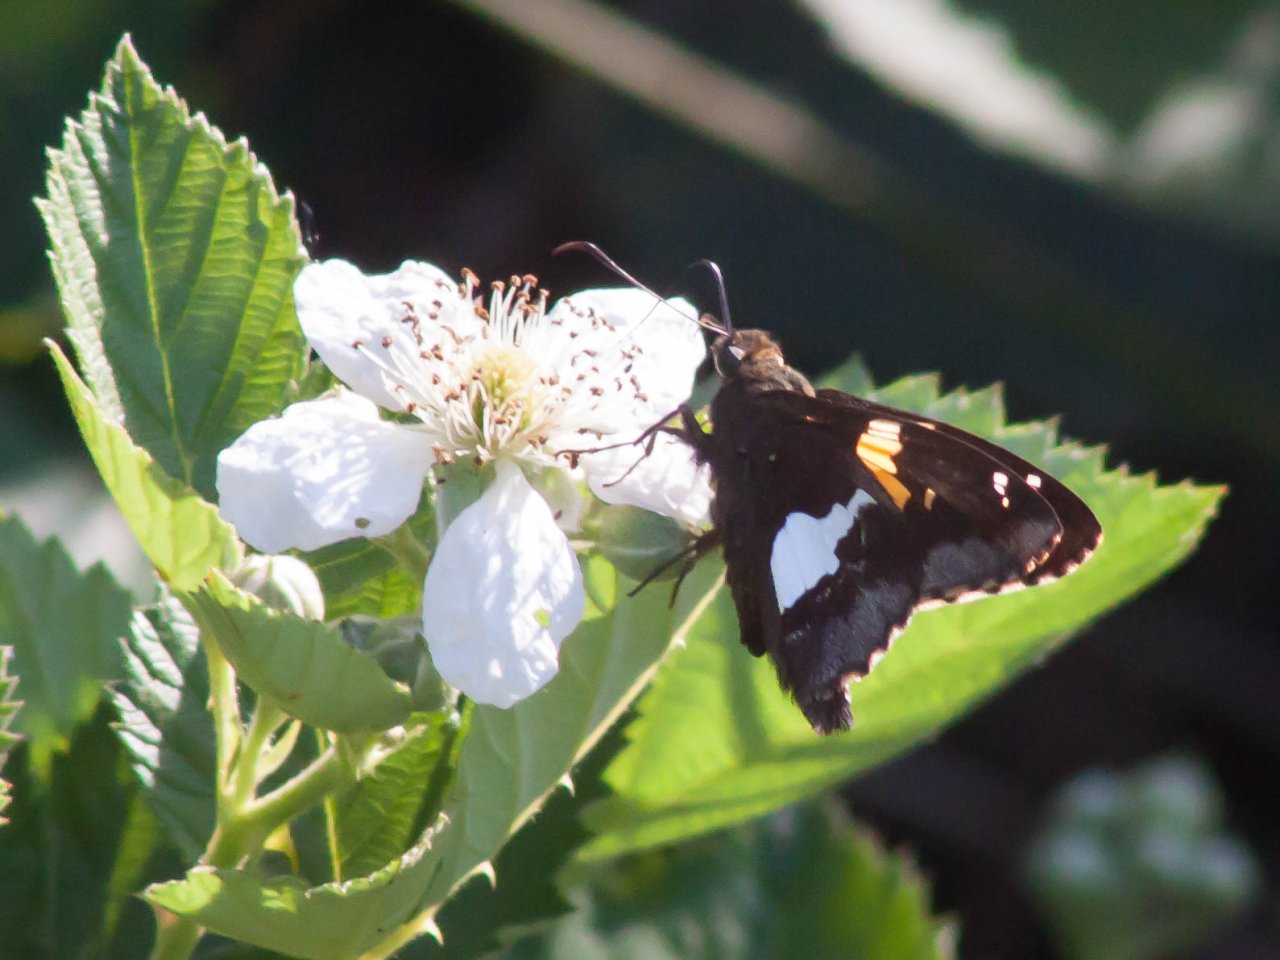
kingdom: Animalia
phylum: Arthropoda
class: Insecta
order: Lepidoptera
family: Hesperiidae
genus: Epargyreus
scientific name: Epargyreus clarus
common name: Silver-spotted Skipper
